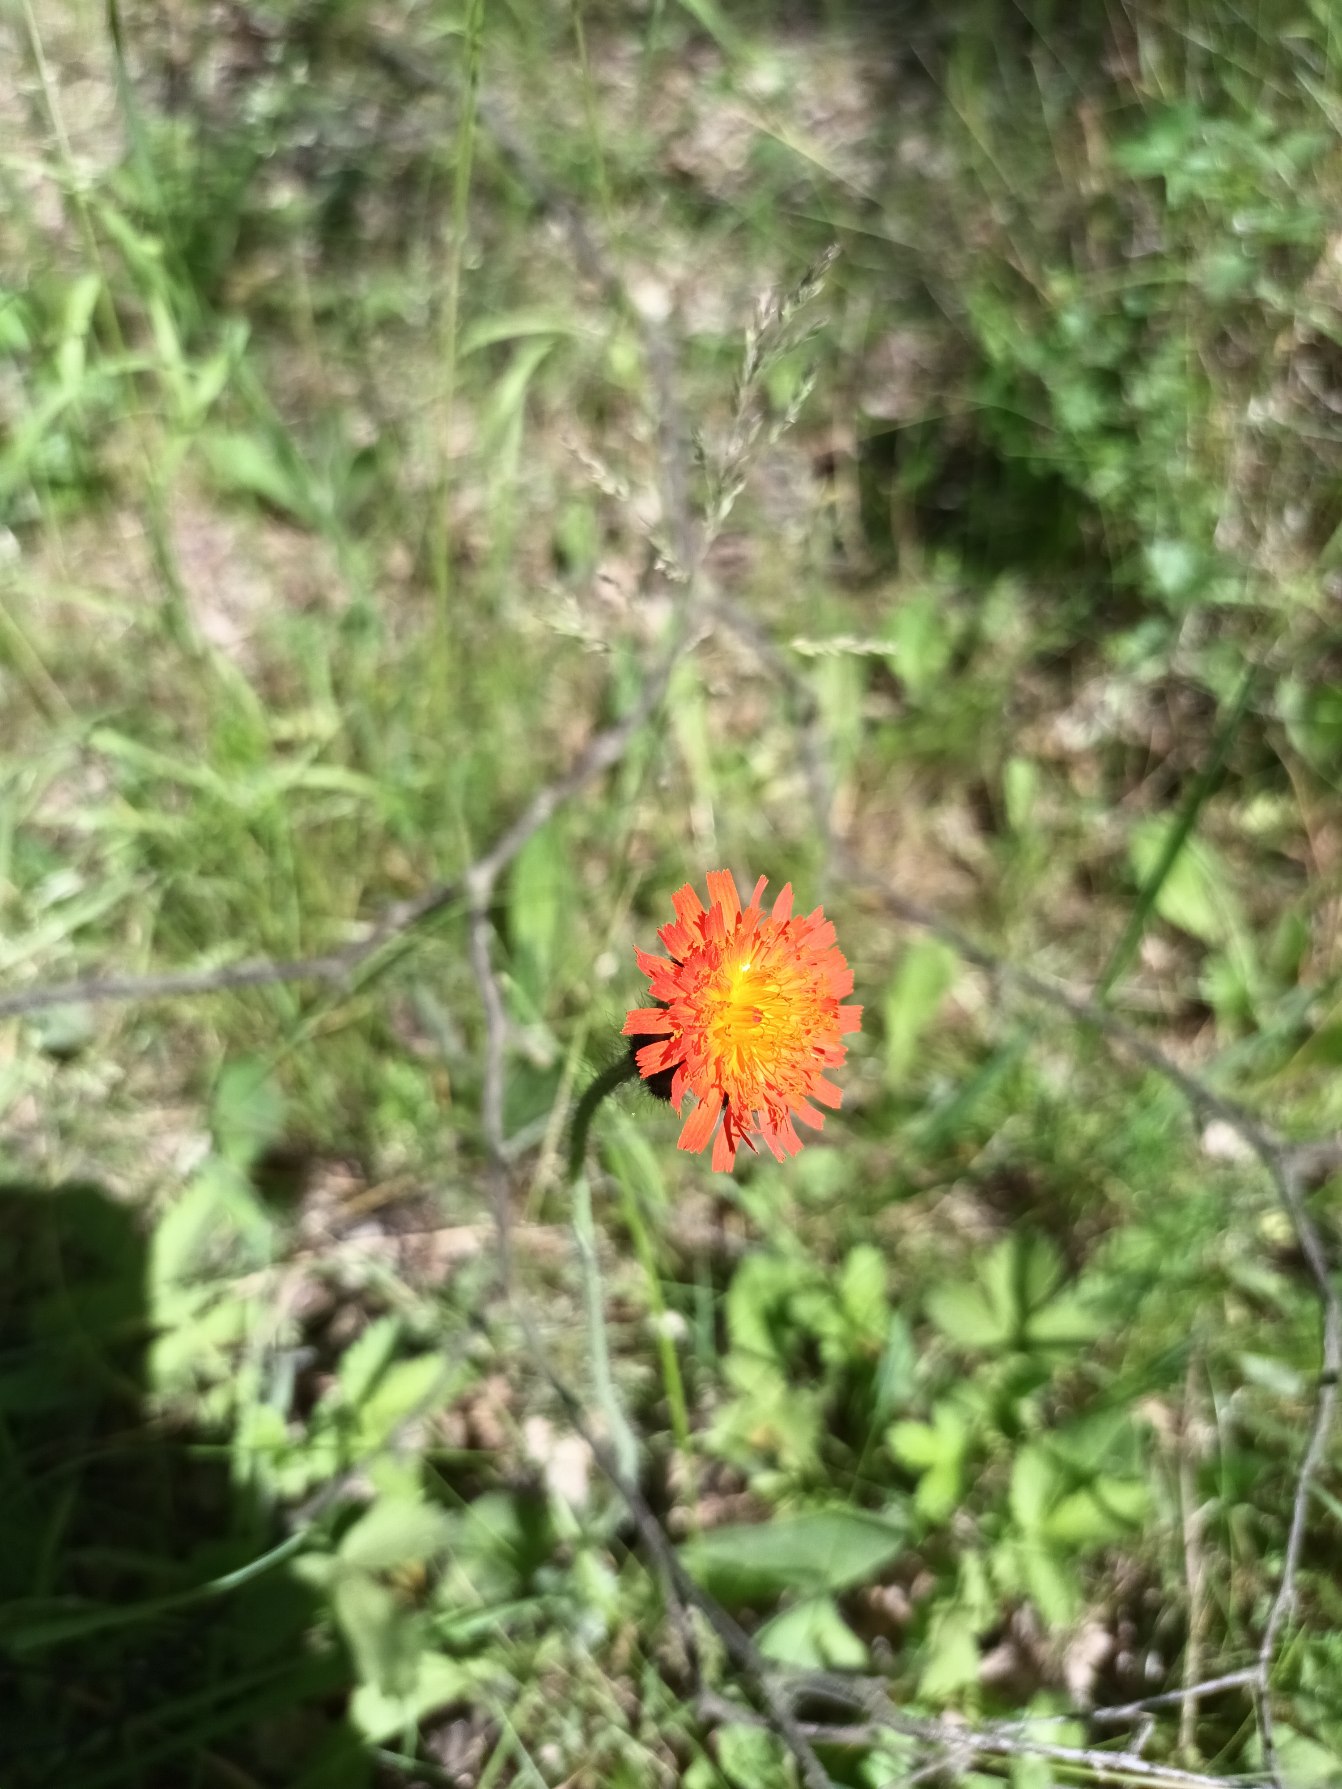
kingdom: Plantae
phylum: Tracheophyta
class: Magnoliopsida
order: Asterales
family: Asteraceae
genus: Pilosella
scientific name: Pilosella aurantiaca
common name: Pomerans-høgeurt
